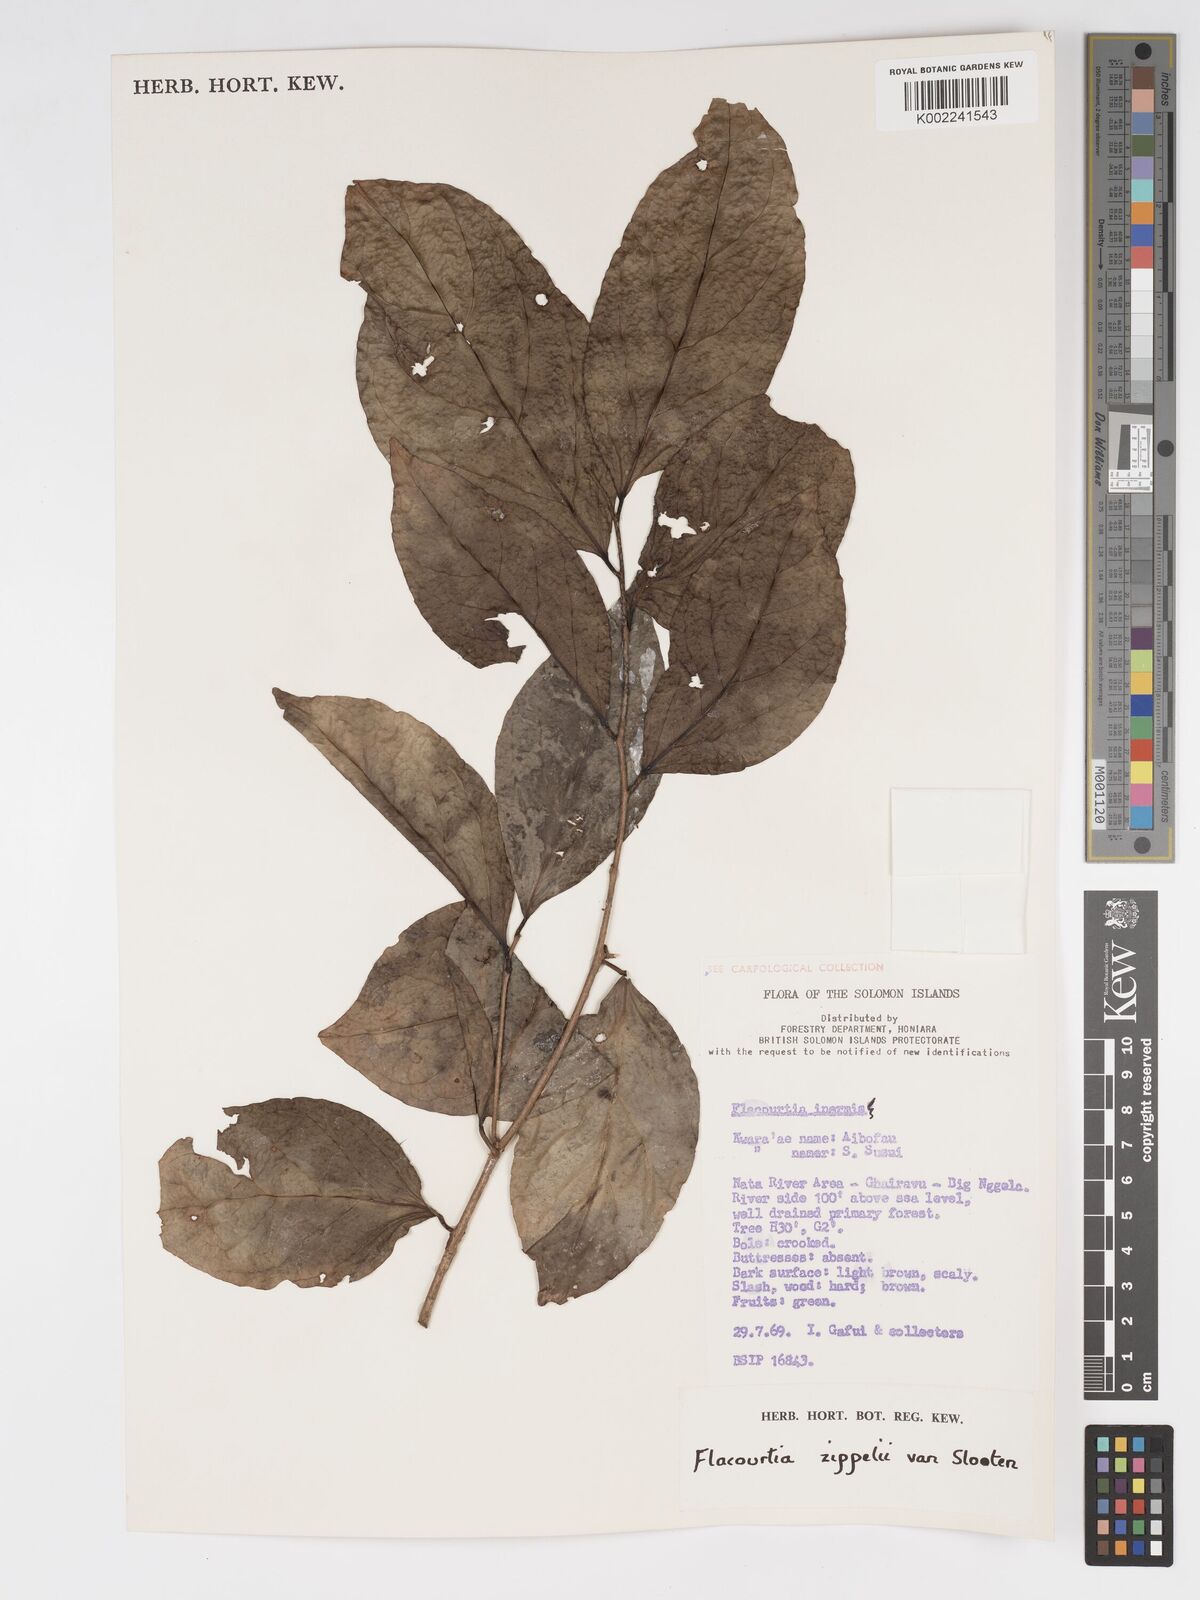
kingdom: Plantae
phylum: Tracheophyta
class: Magnoliopsida
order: Malpighiales
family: Salicaceae
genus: Flacourtia
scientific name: Flacourtia zippelii
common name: Zippeli plum
